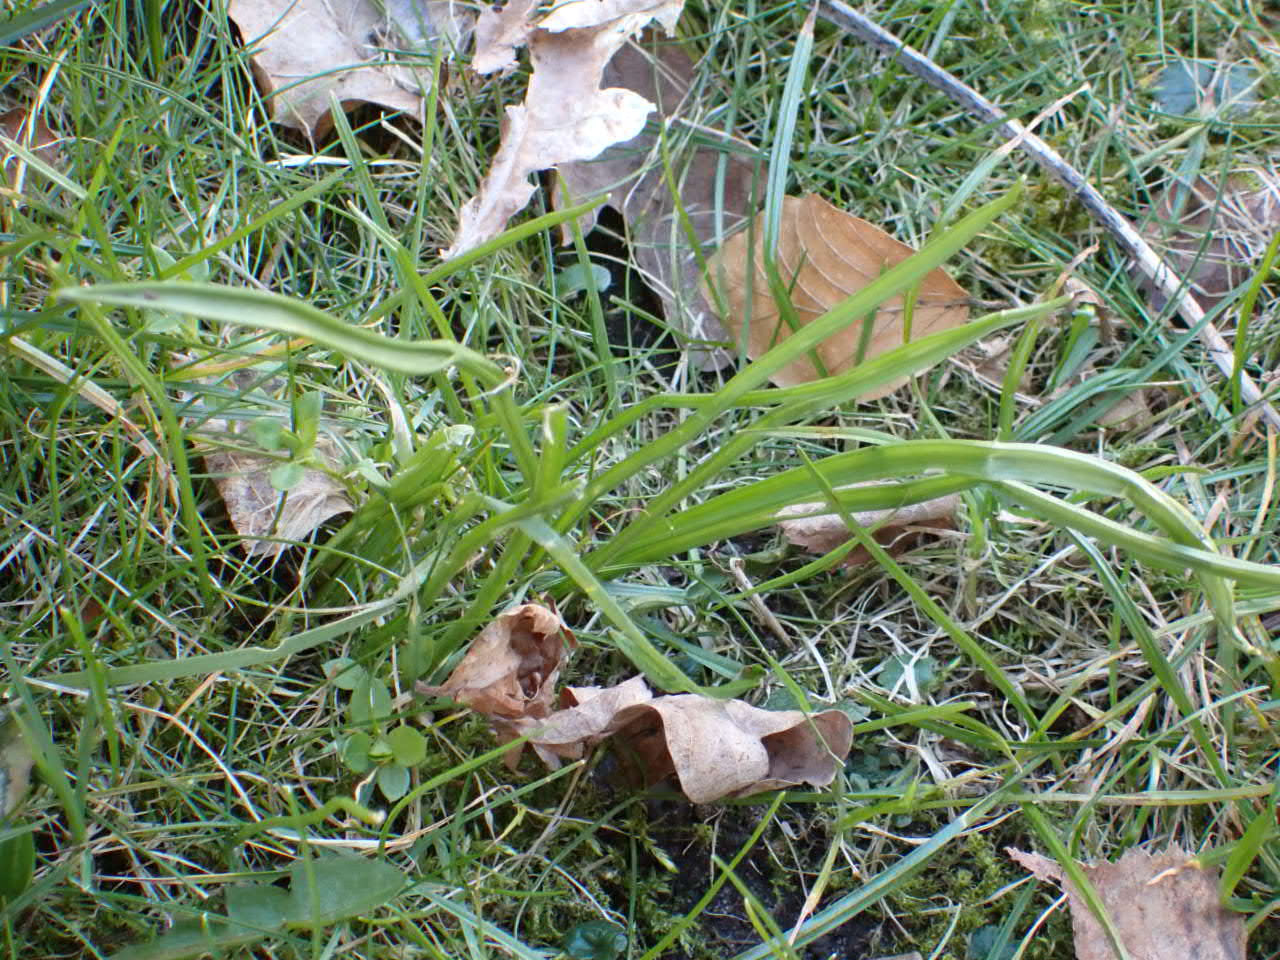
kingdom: Plantae
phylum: Tracheophyta
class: Liliopsida
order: Liliales
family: Liliaceae
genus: Gagea
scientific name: Gagea pratensis
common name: Eng-guldstjerne
